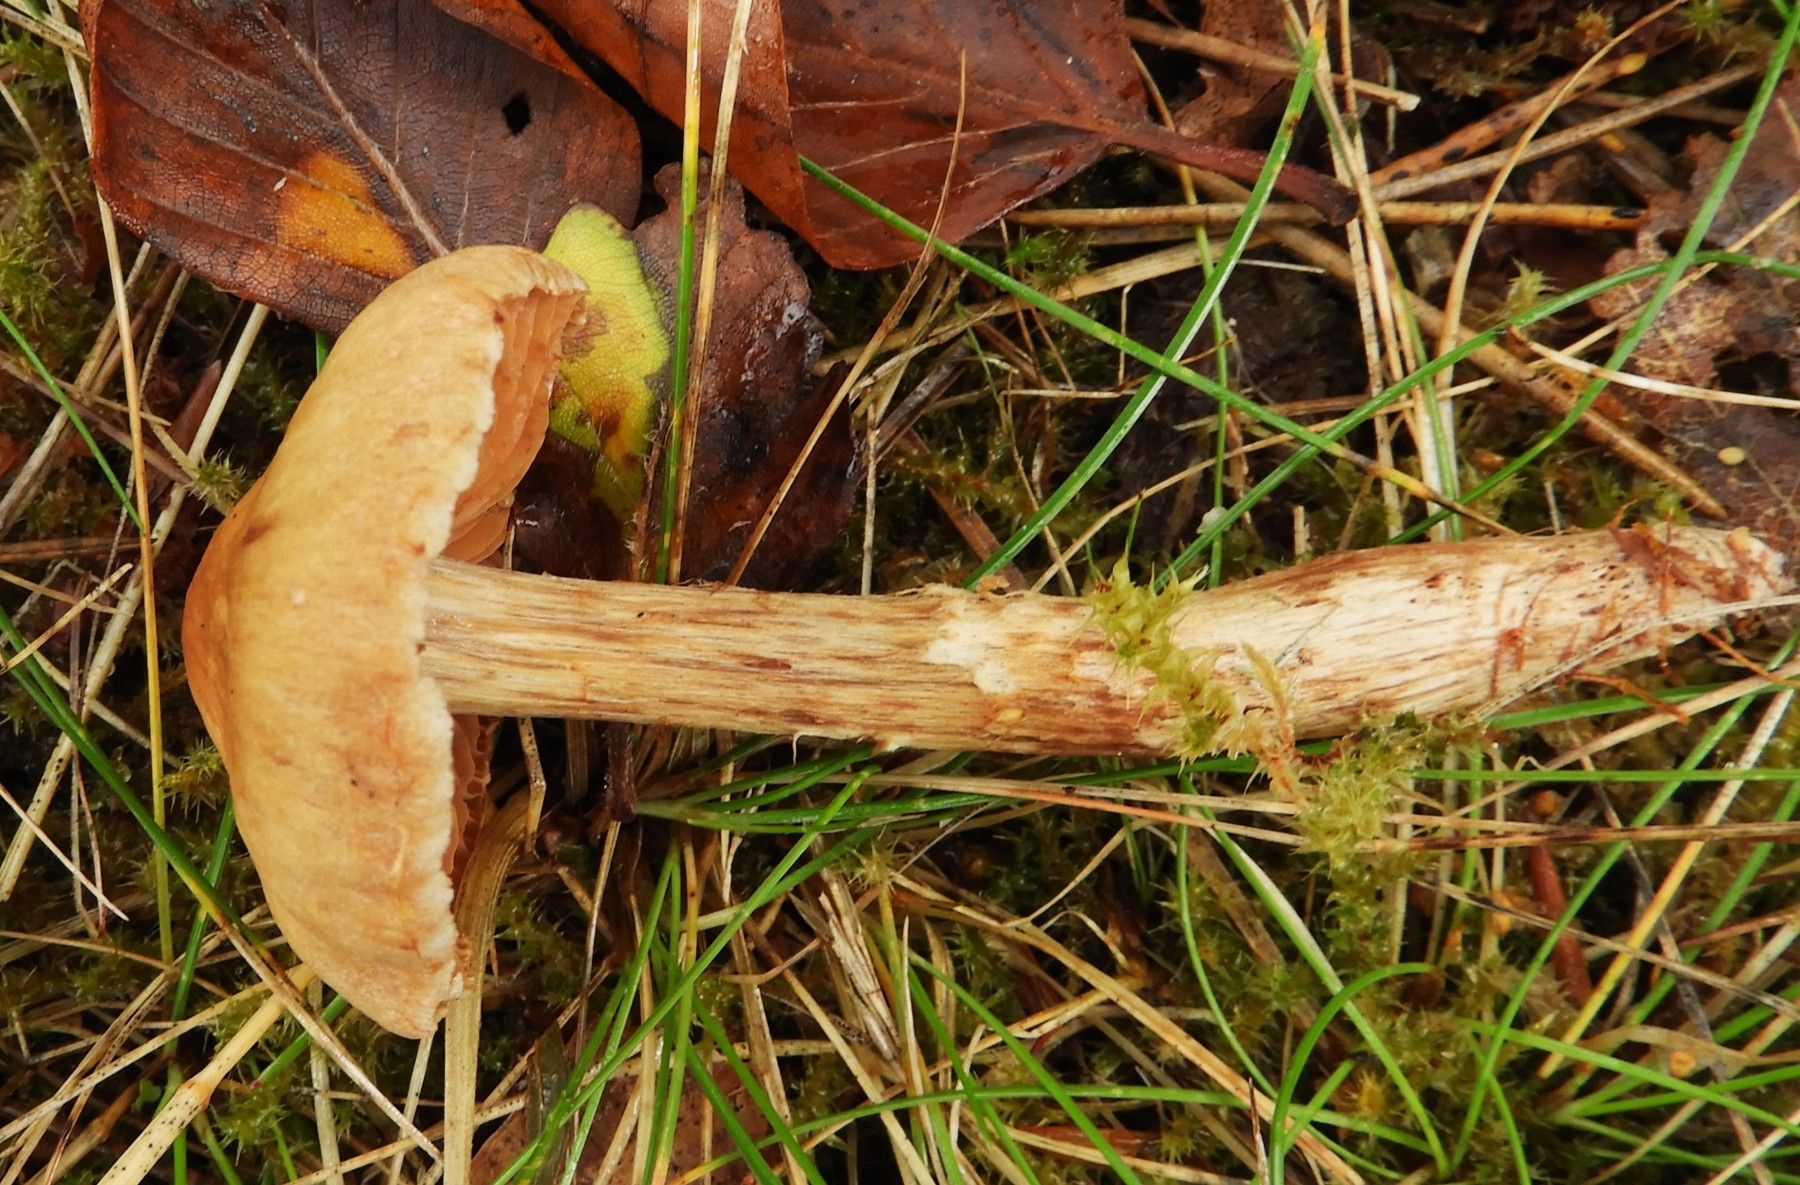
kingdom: Fungi
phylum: Basidiomycota
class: Agaricomycetes
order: Agaricales
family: Cortinariaceae
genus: Cortinarius
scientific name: Cortinarius hinnuleus
